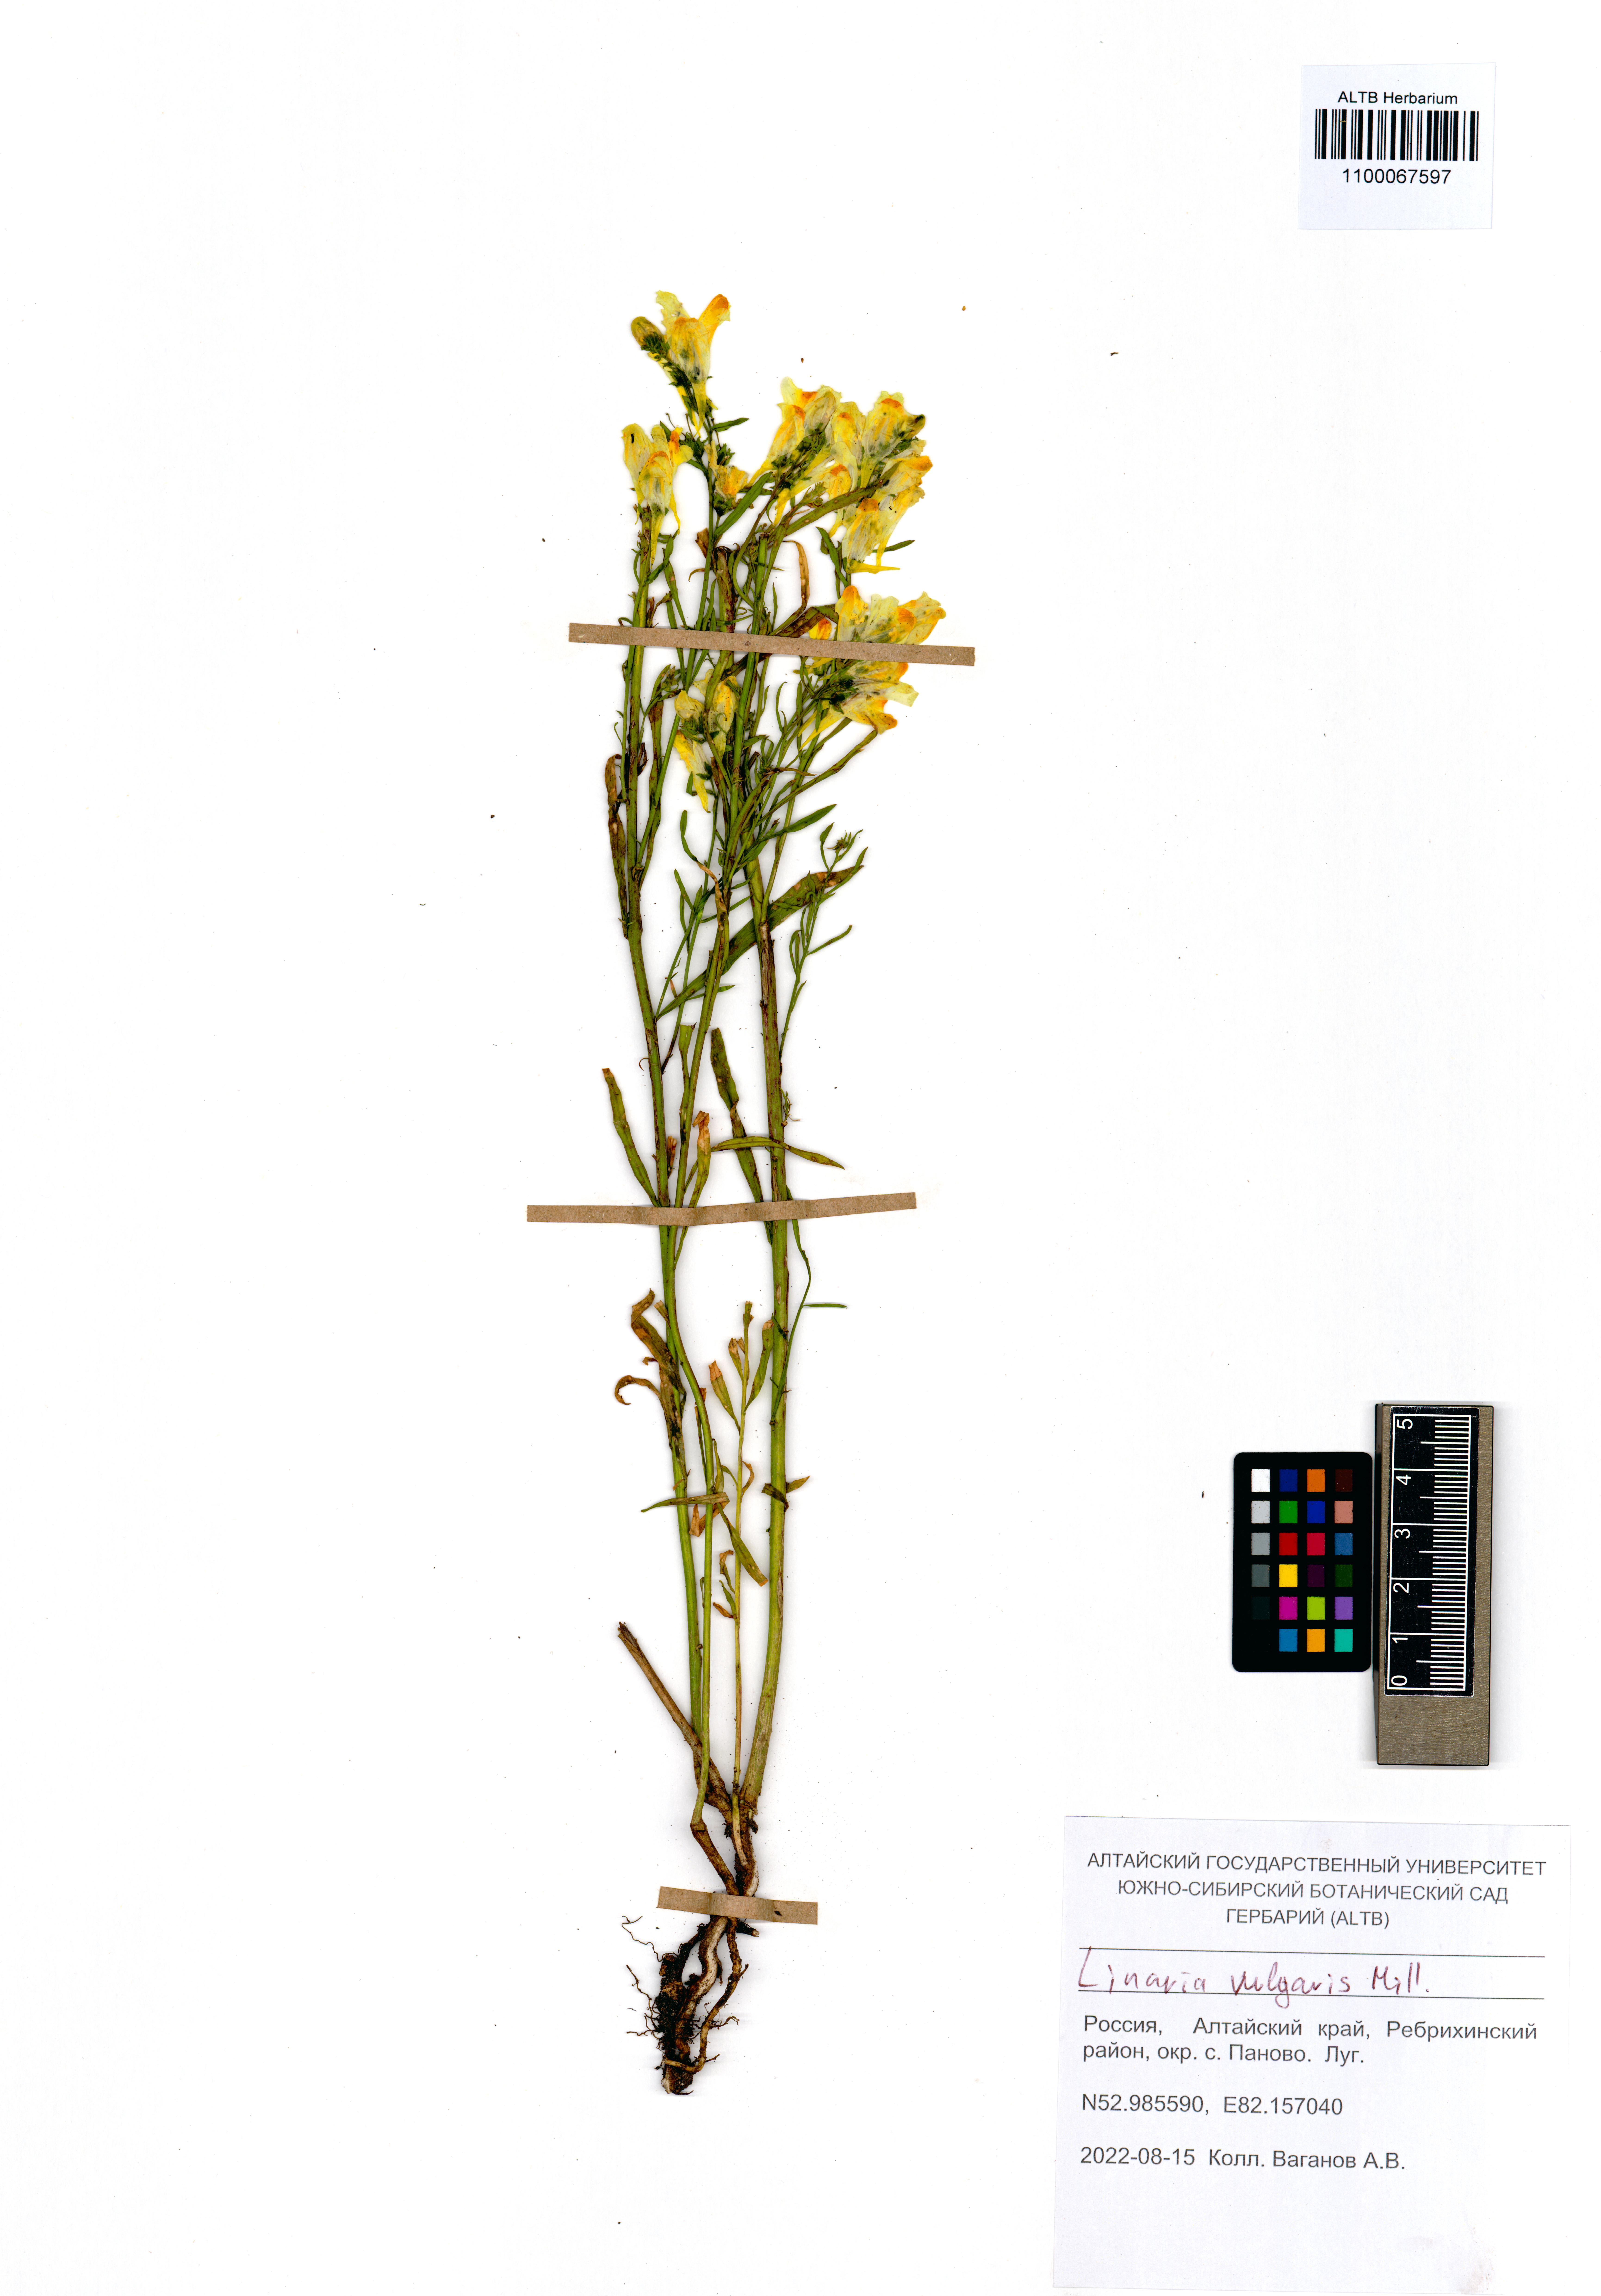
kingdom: Plantae
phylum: Tracheophyta
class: Magnoliopsida
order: Lamiales
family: Plantaginaceae
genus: Linaria
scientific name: Linaria vulgaris
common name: Butter and eggs
